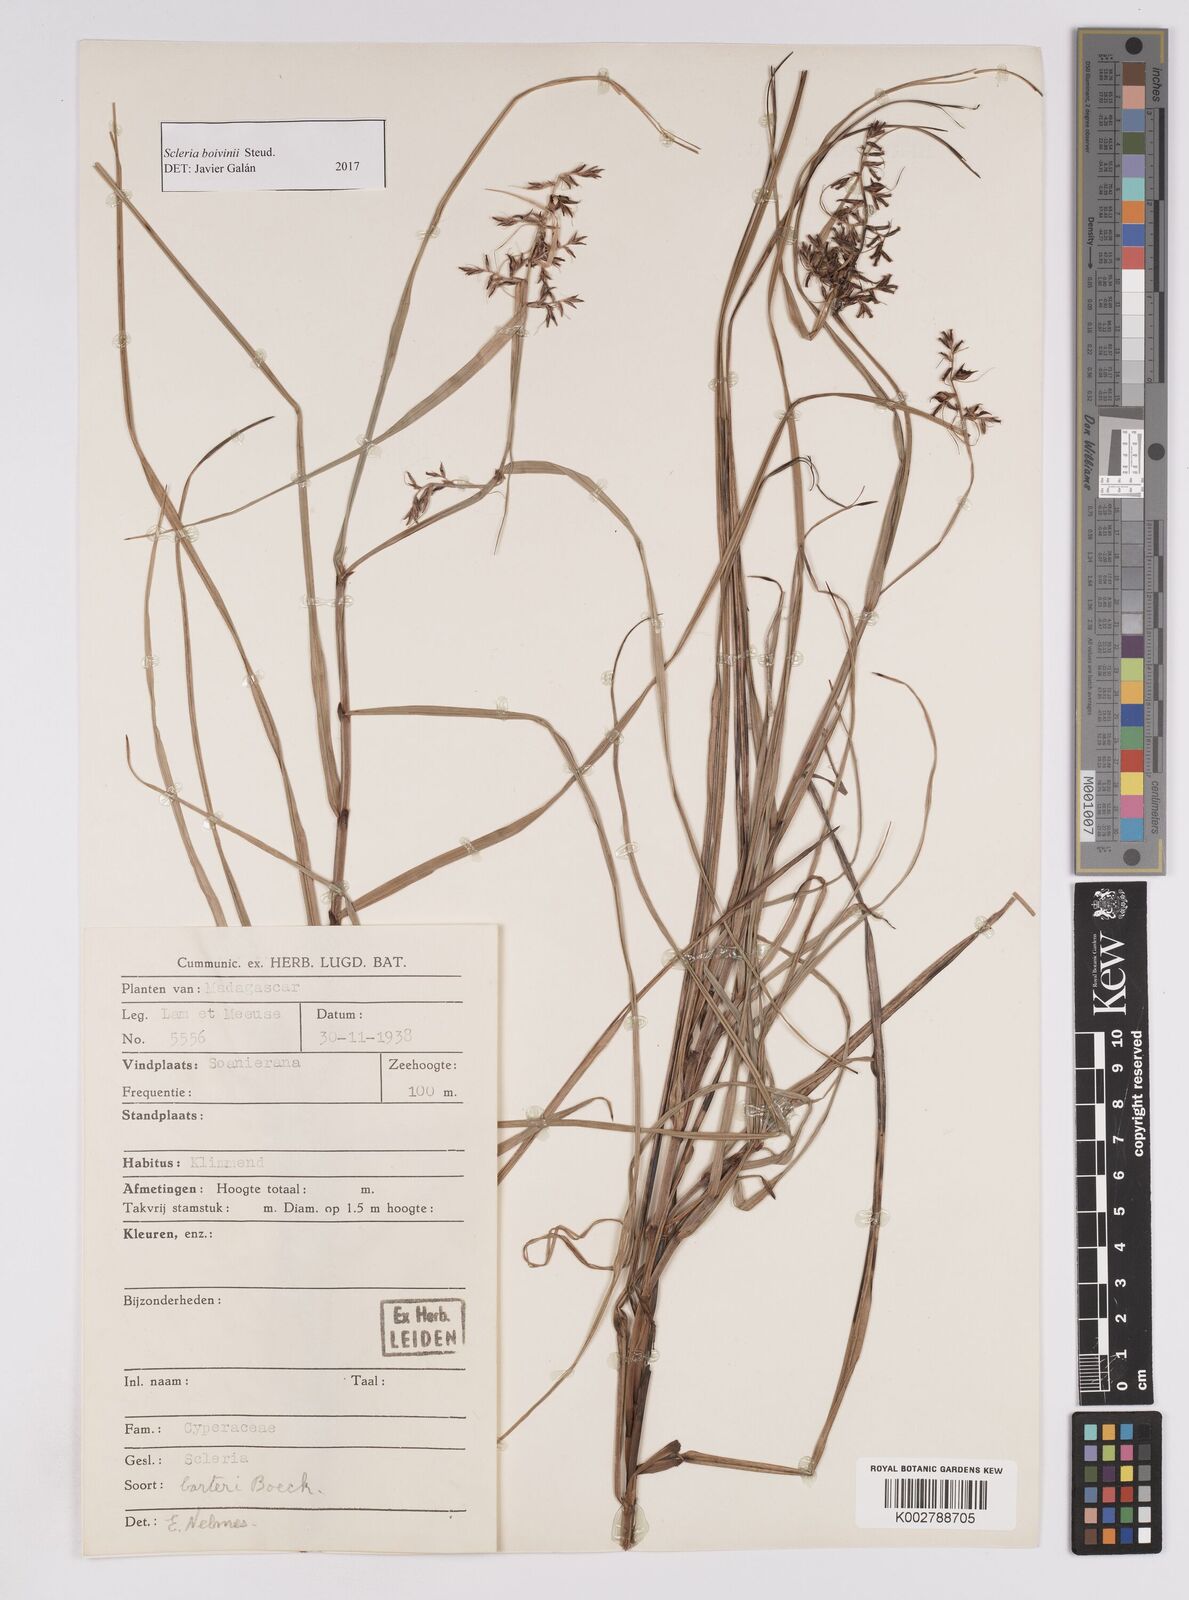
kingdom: Plantae
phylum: Tracheophyta
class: Liliopsida
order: Poales
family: Cyperaceae
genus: Scleria
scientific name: Scleria boivinii
